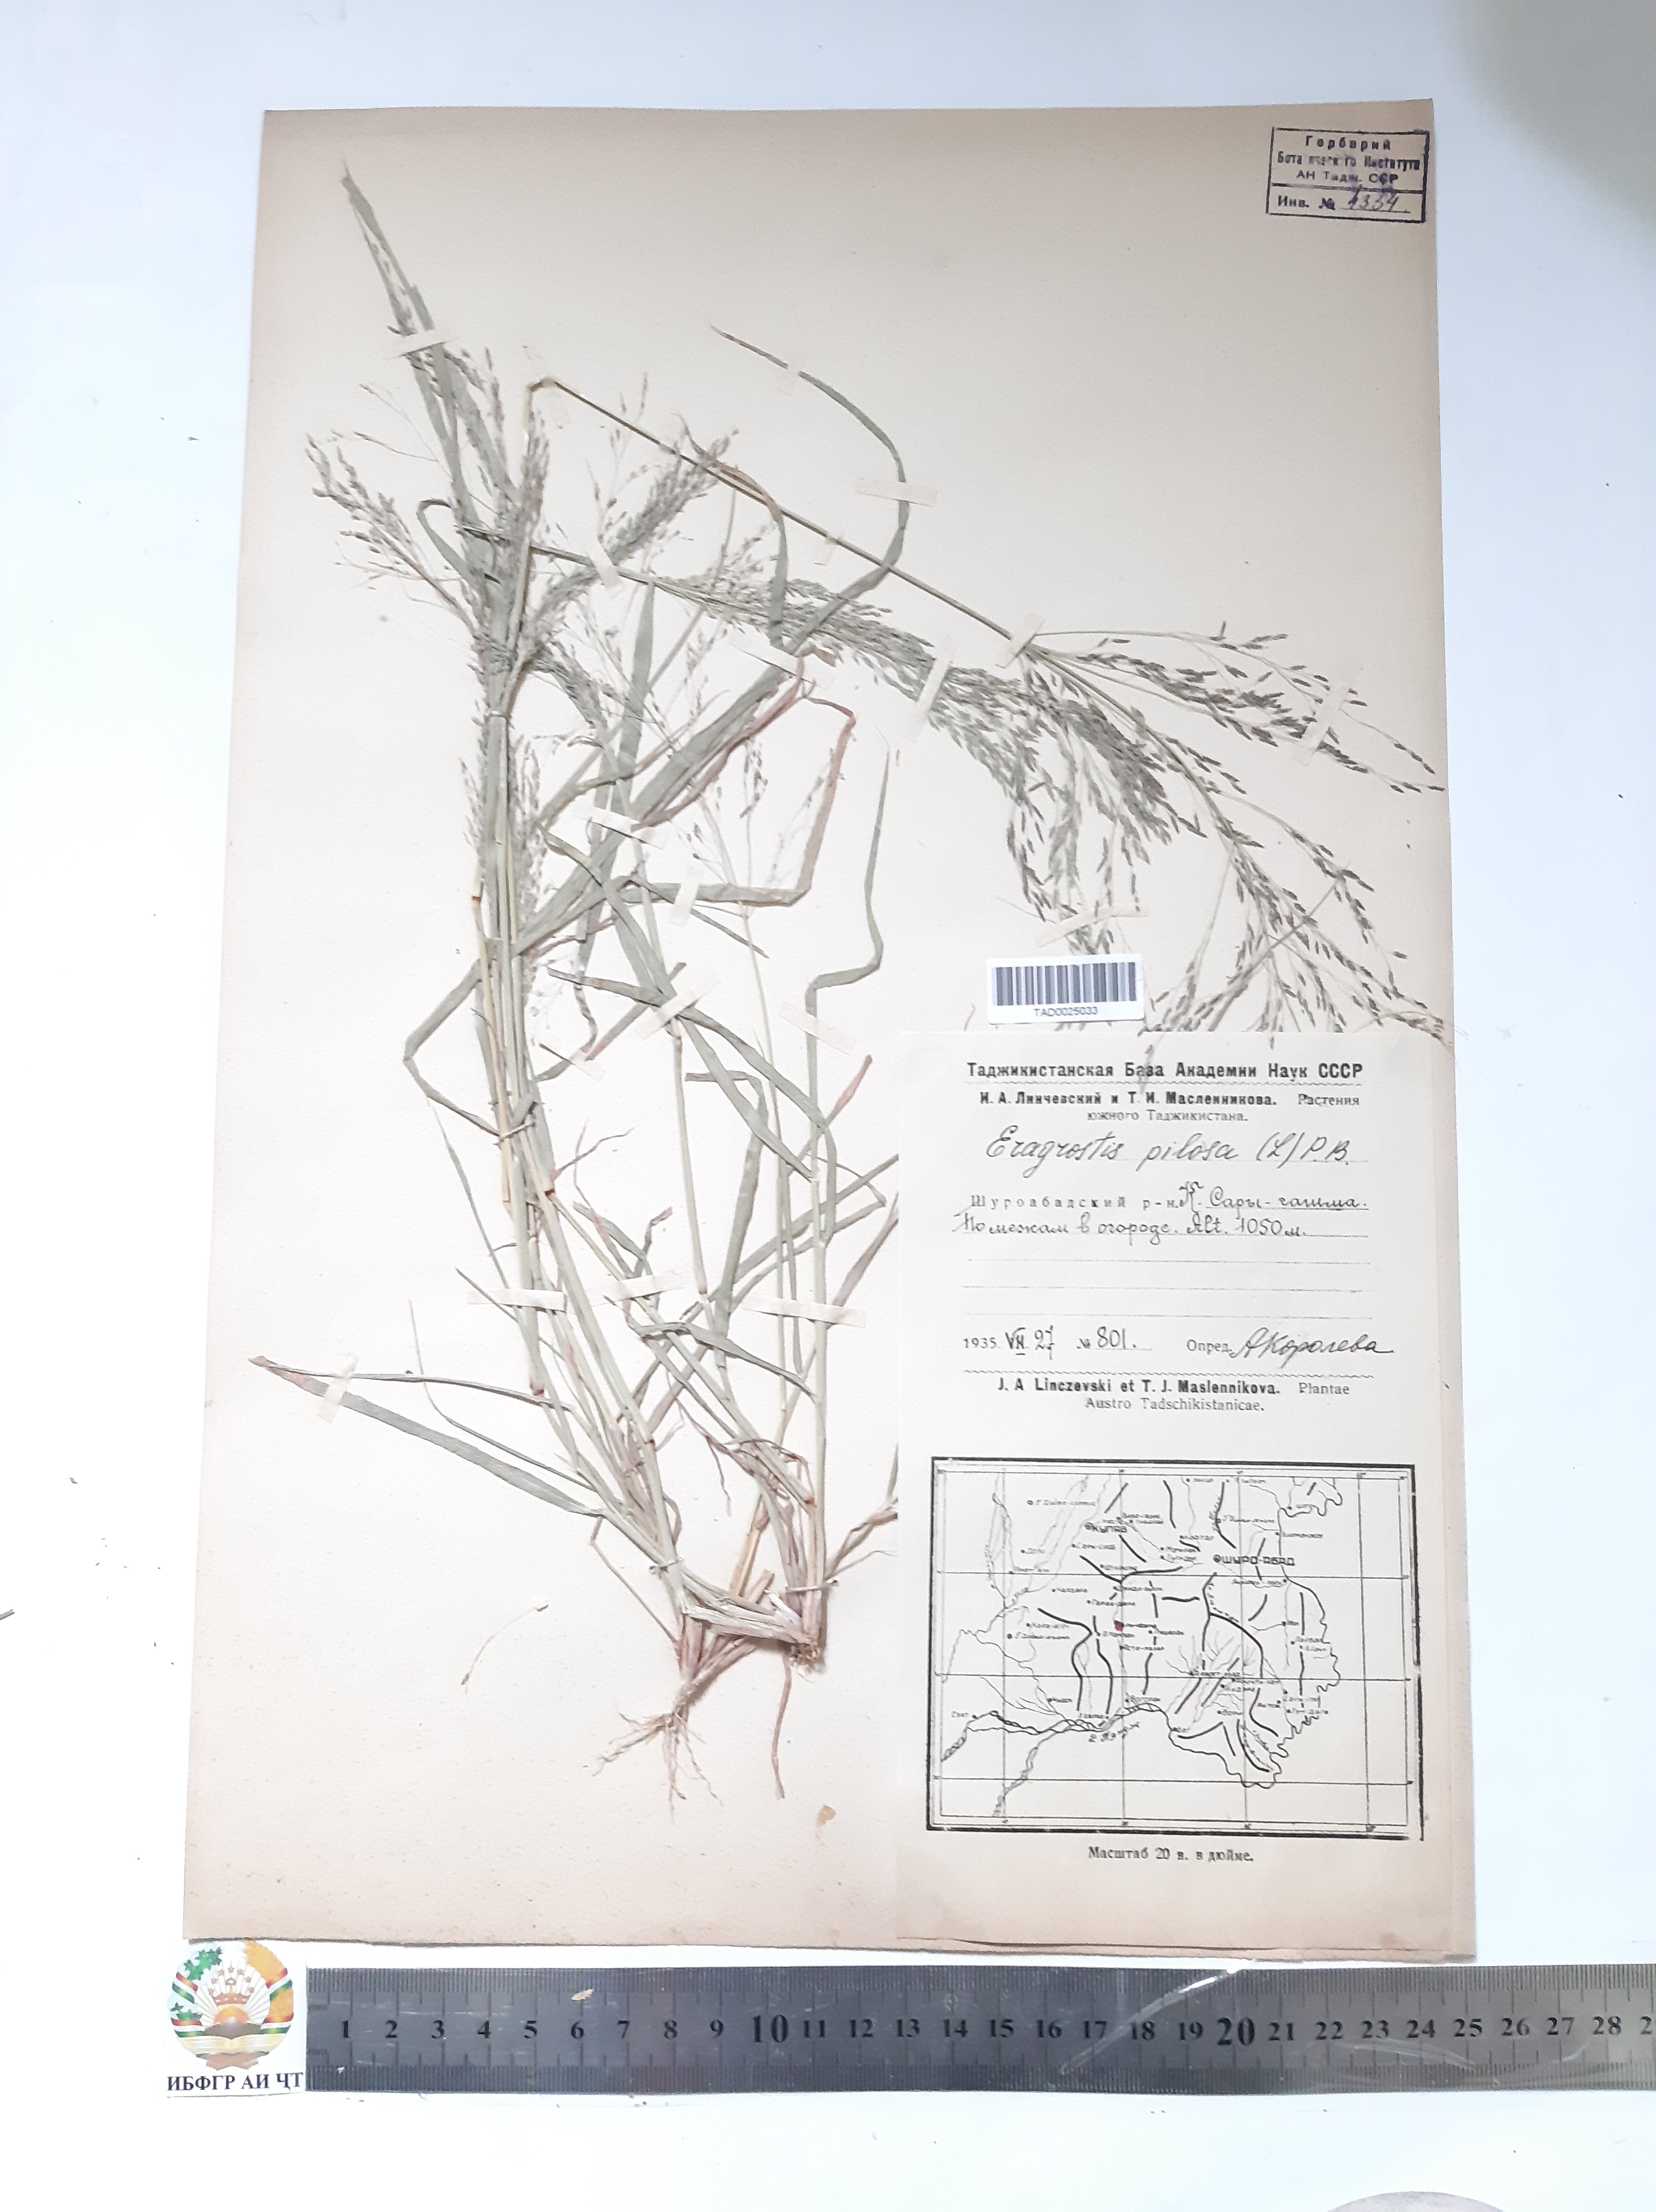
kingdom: Plantae
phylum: Tracheophyta
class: Liliopsida
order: Poales
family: Poaceae
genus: Eragrostis
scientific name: Eragrostis pilosa
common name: Indian lovegrass
